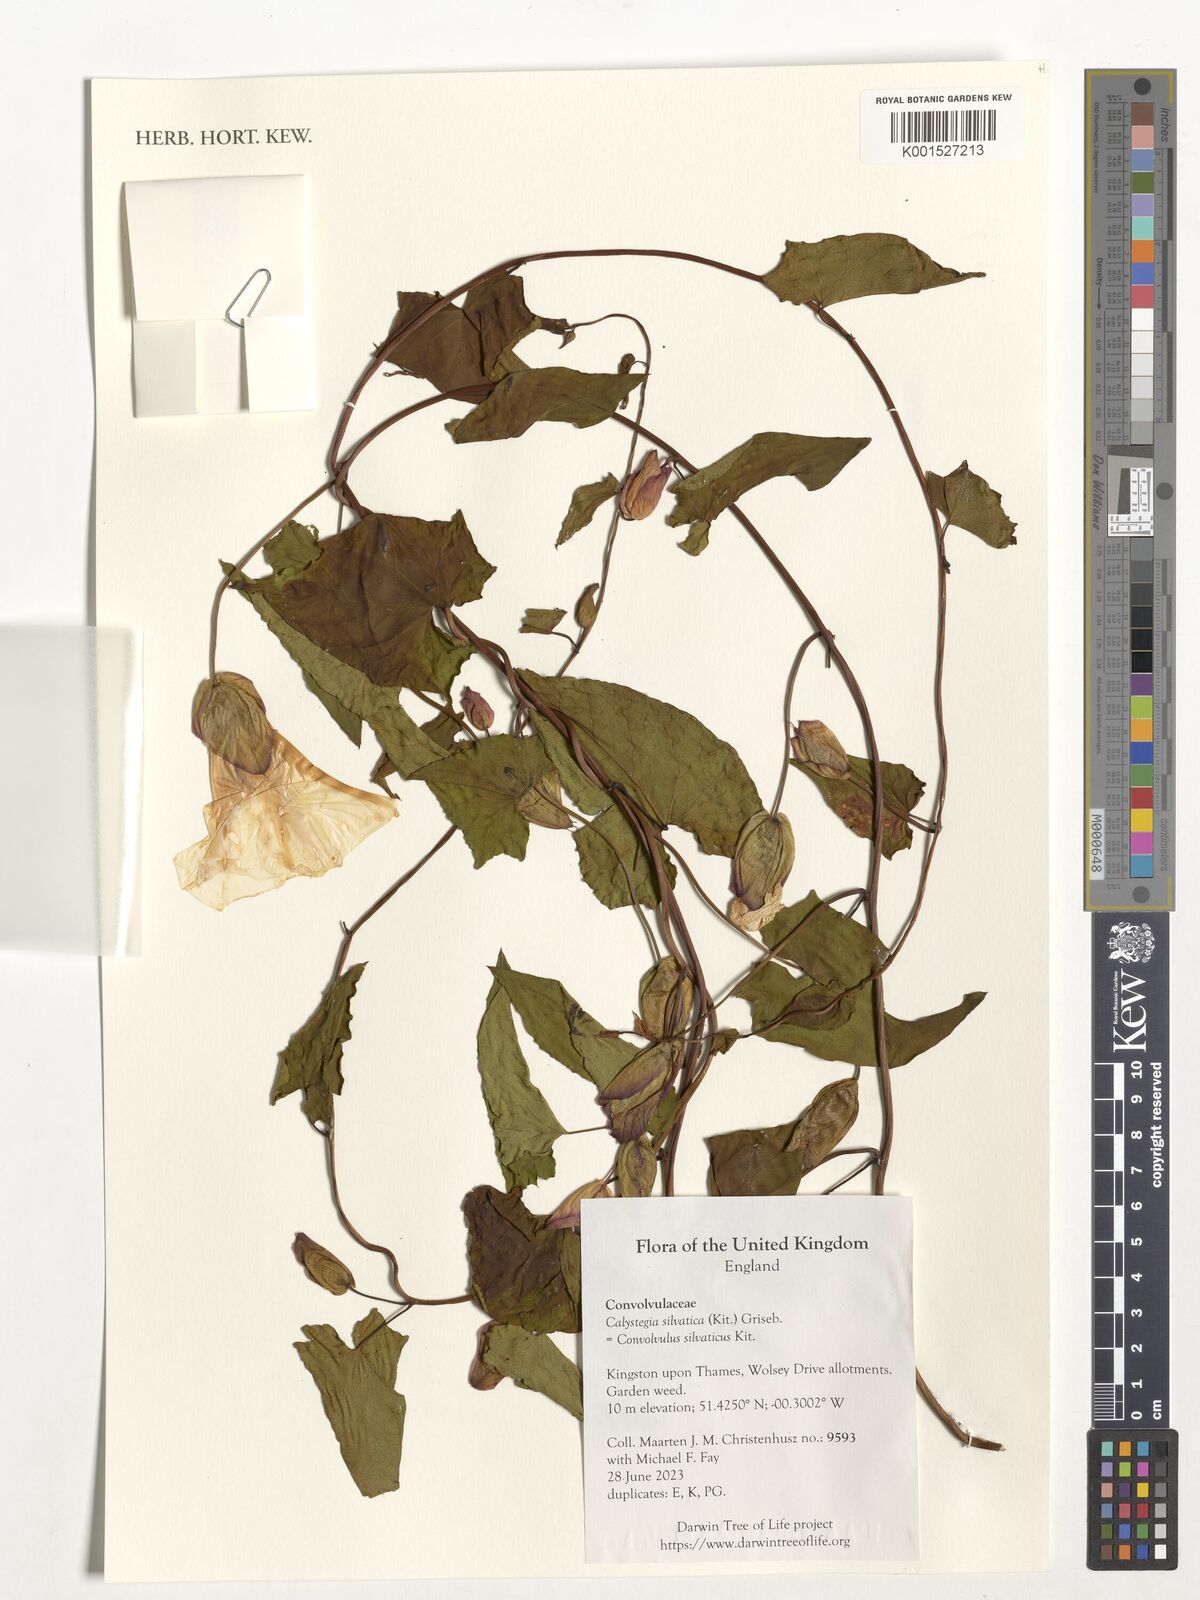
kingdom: Plantae
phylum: Tracheophyta
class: Magnoliopsida
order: Solanales
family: Convolvulaceae
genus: Calystegia
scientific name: Calystegia silvatica
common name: Large bindweed
